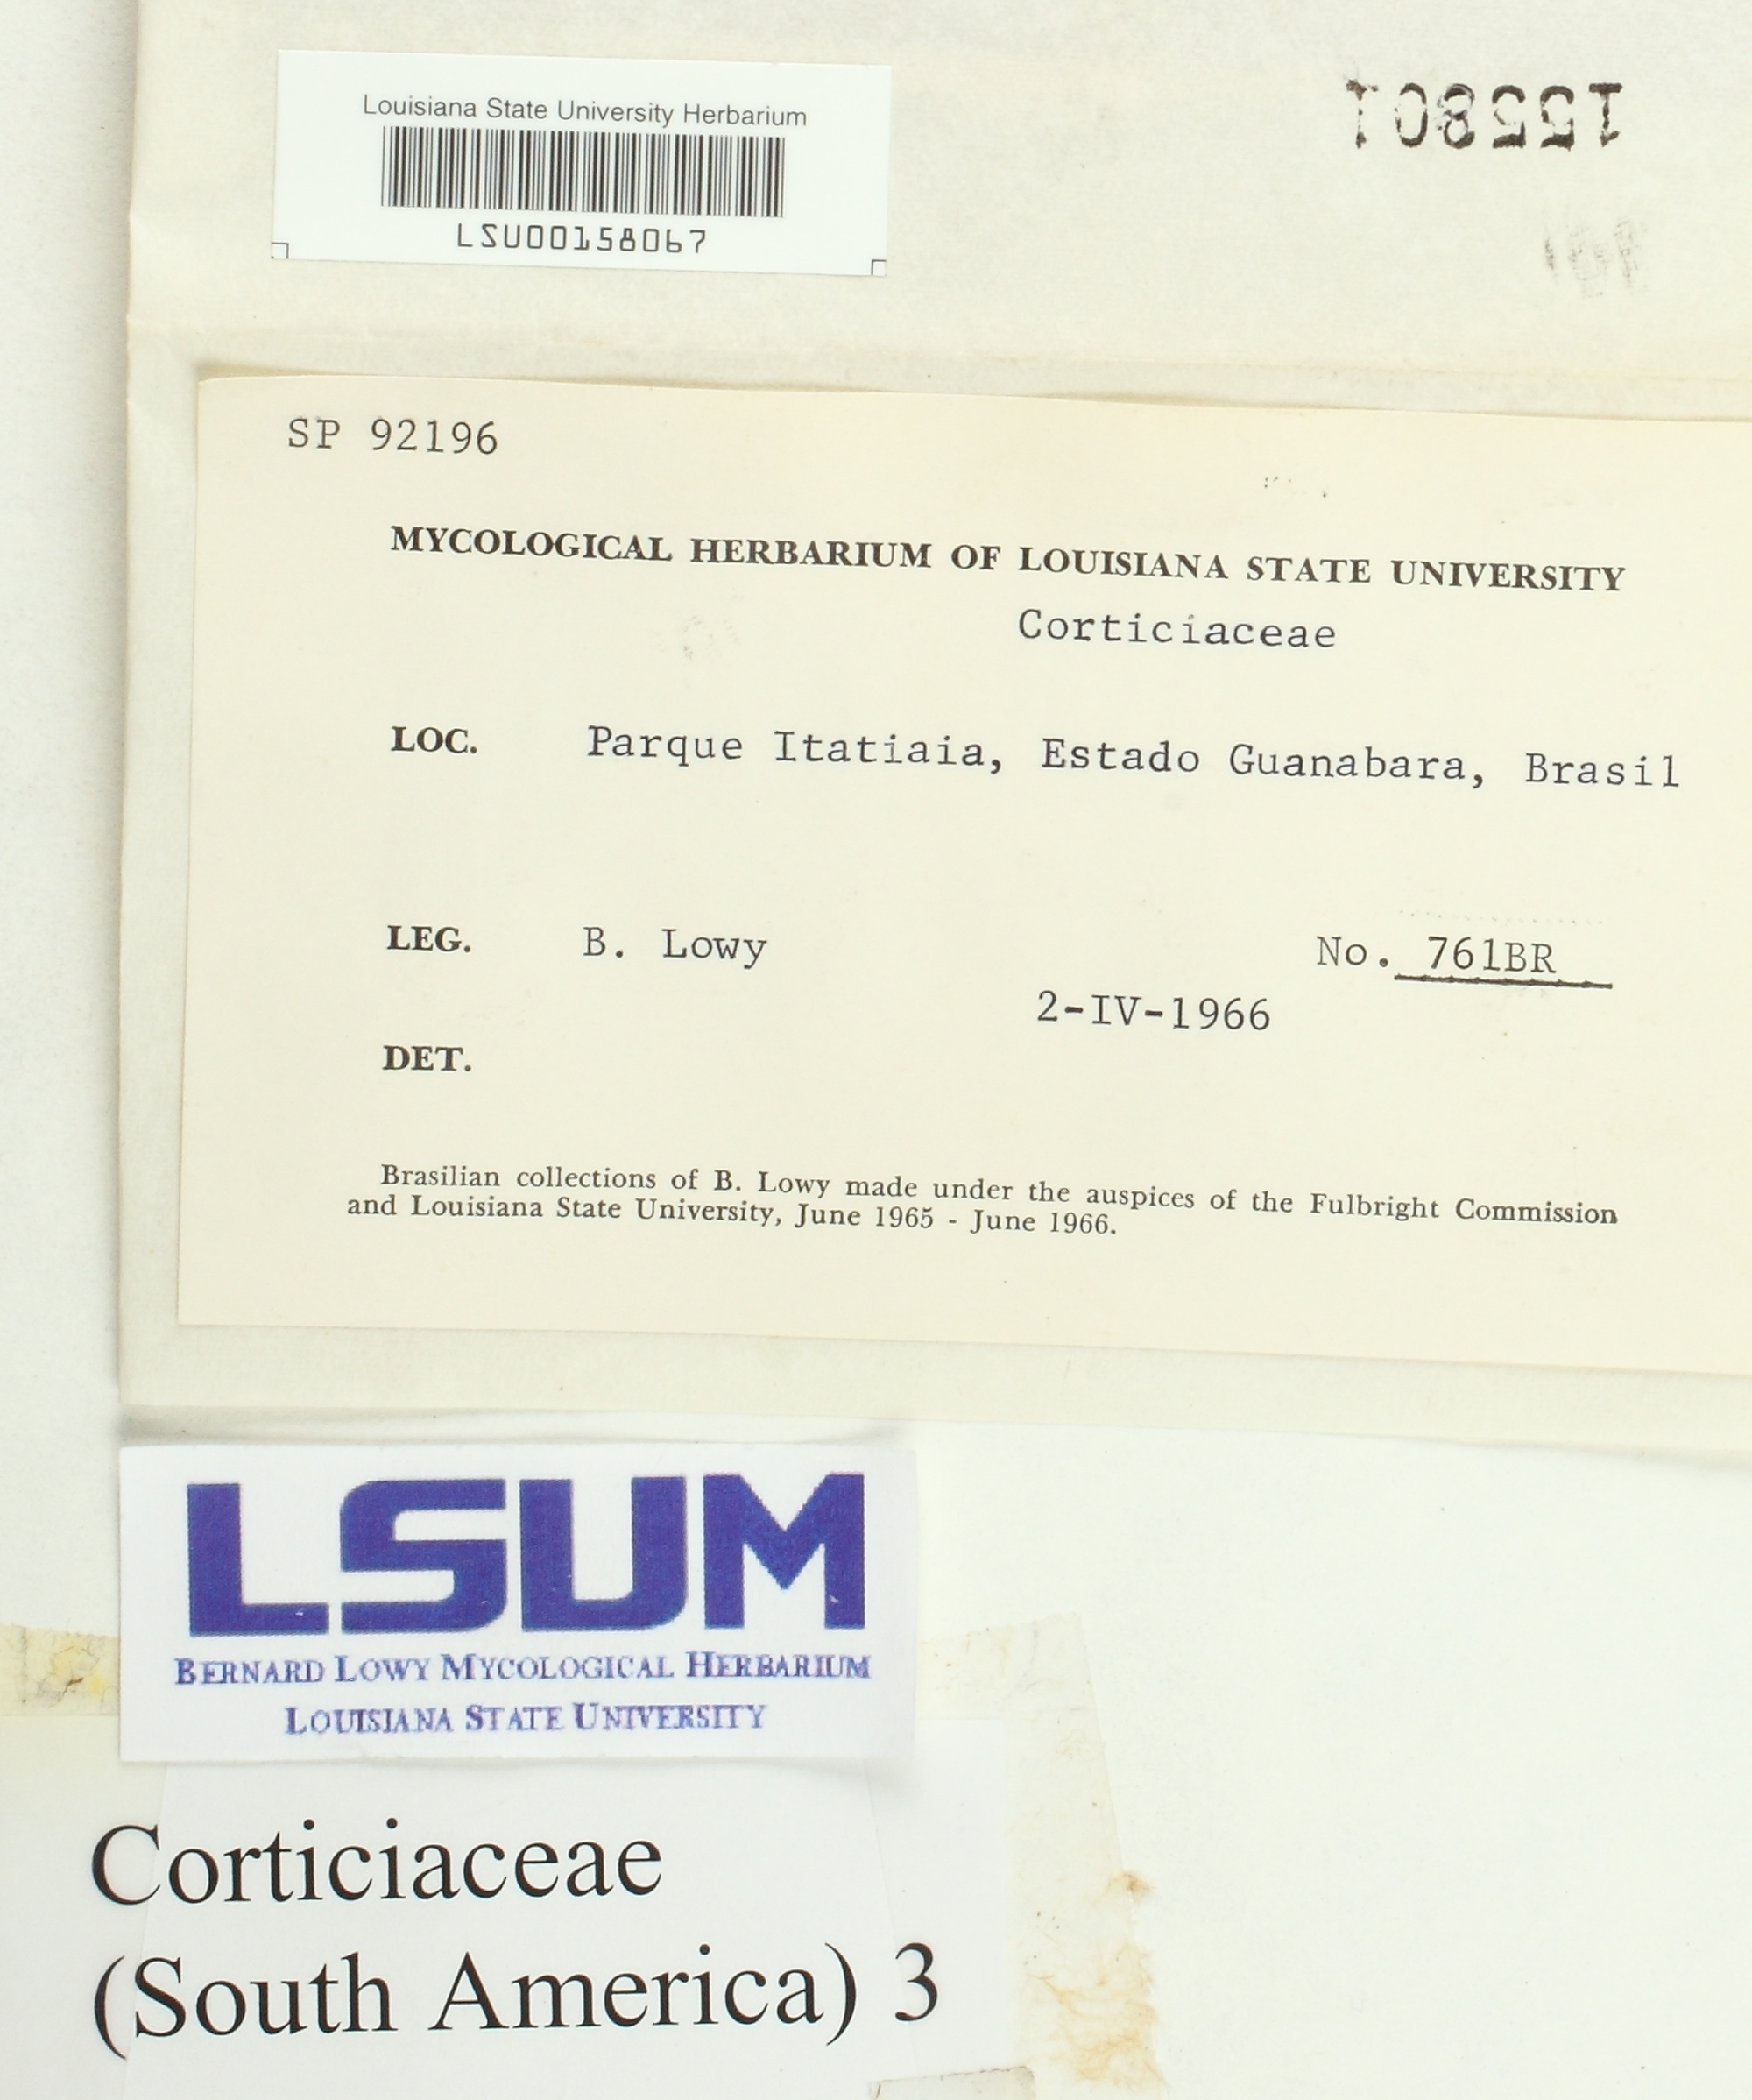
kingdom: Fungi
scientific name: Fungi
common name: Fungi
